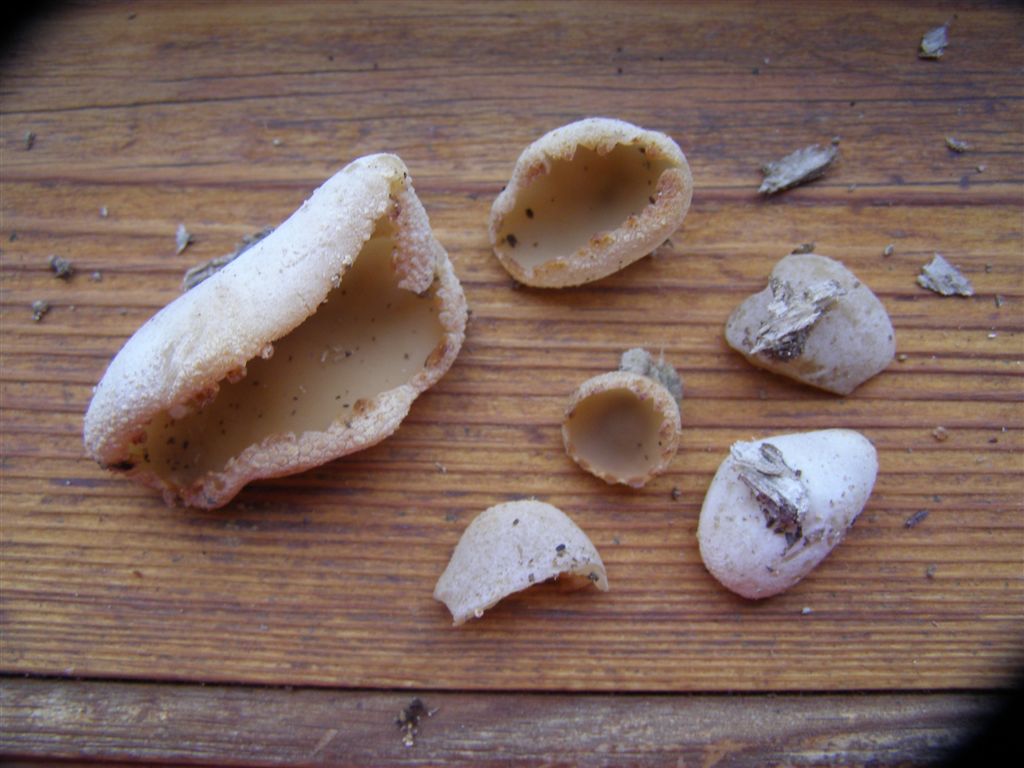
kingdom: Fungi
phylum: Ascomycota
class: Pezizomycetes
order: Pezizales
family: Pezizaceae
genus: Peziza
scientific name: Peziza varia
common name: Ved-bægersvamp
